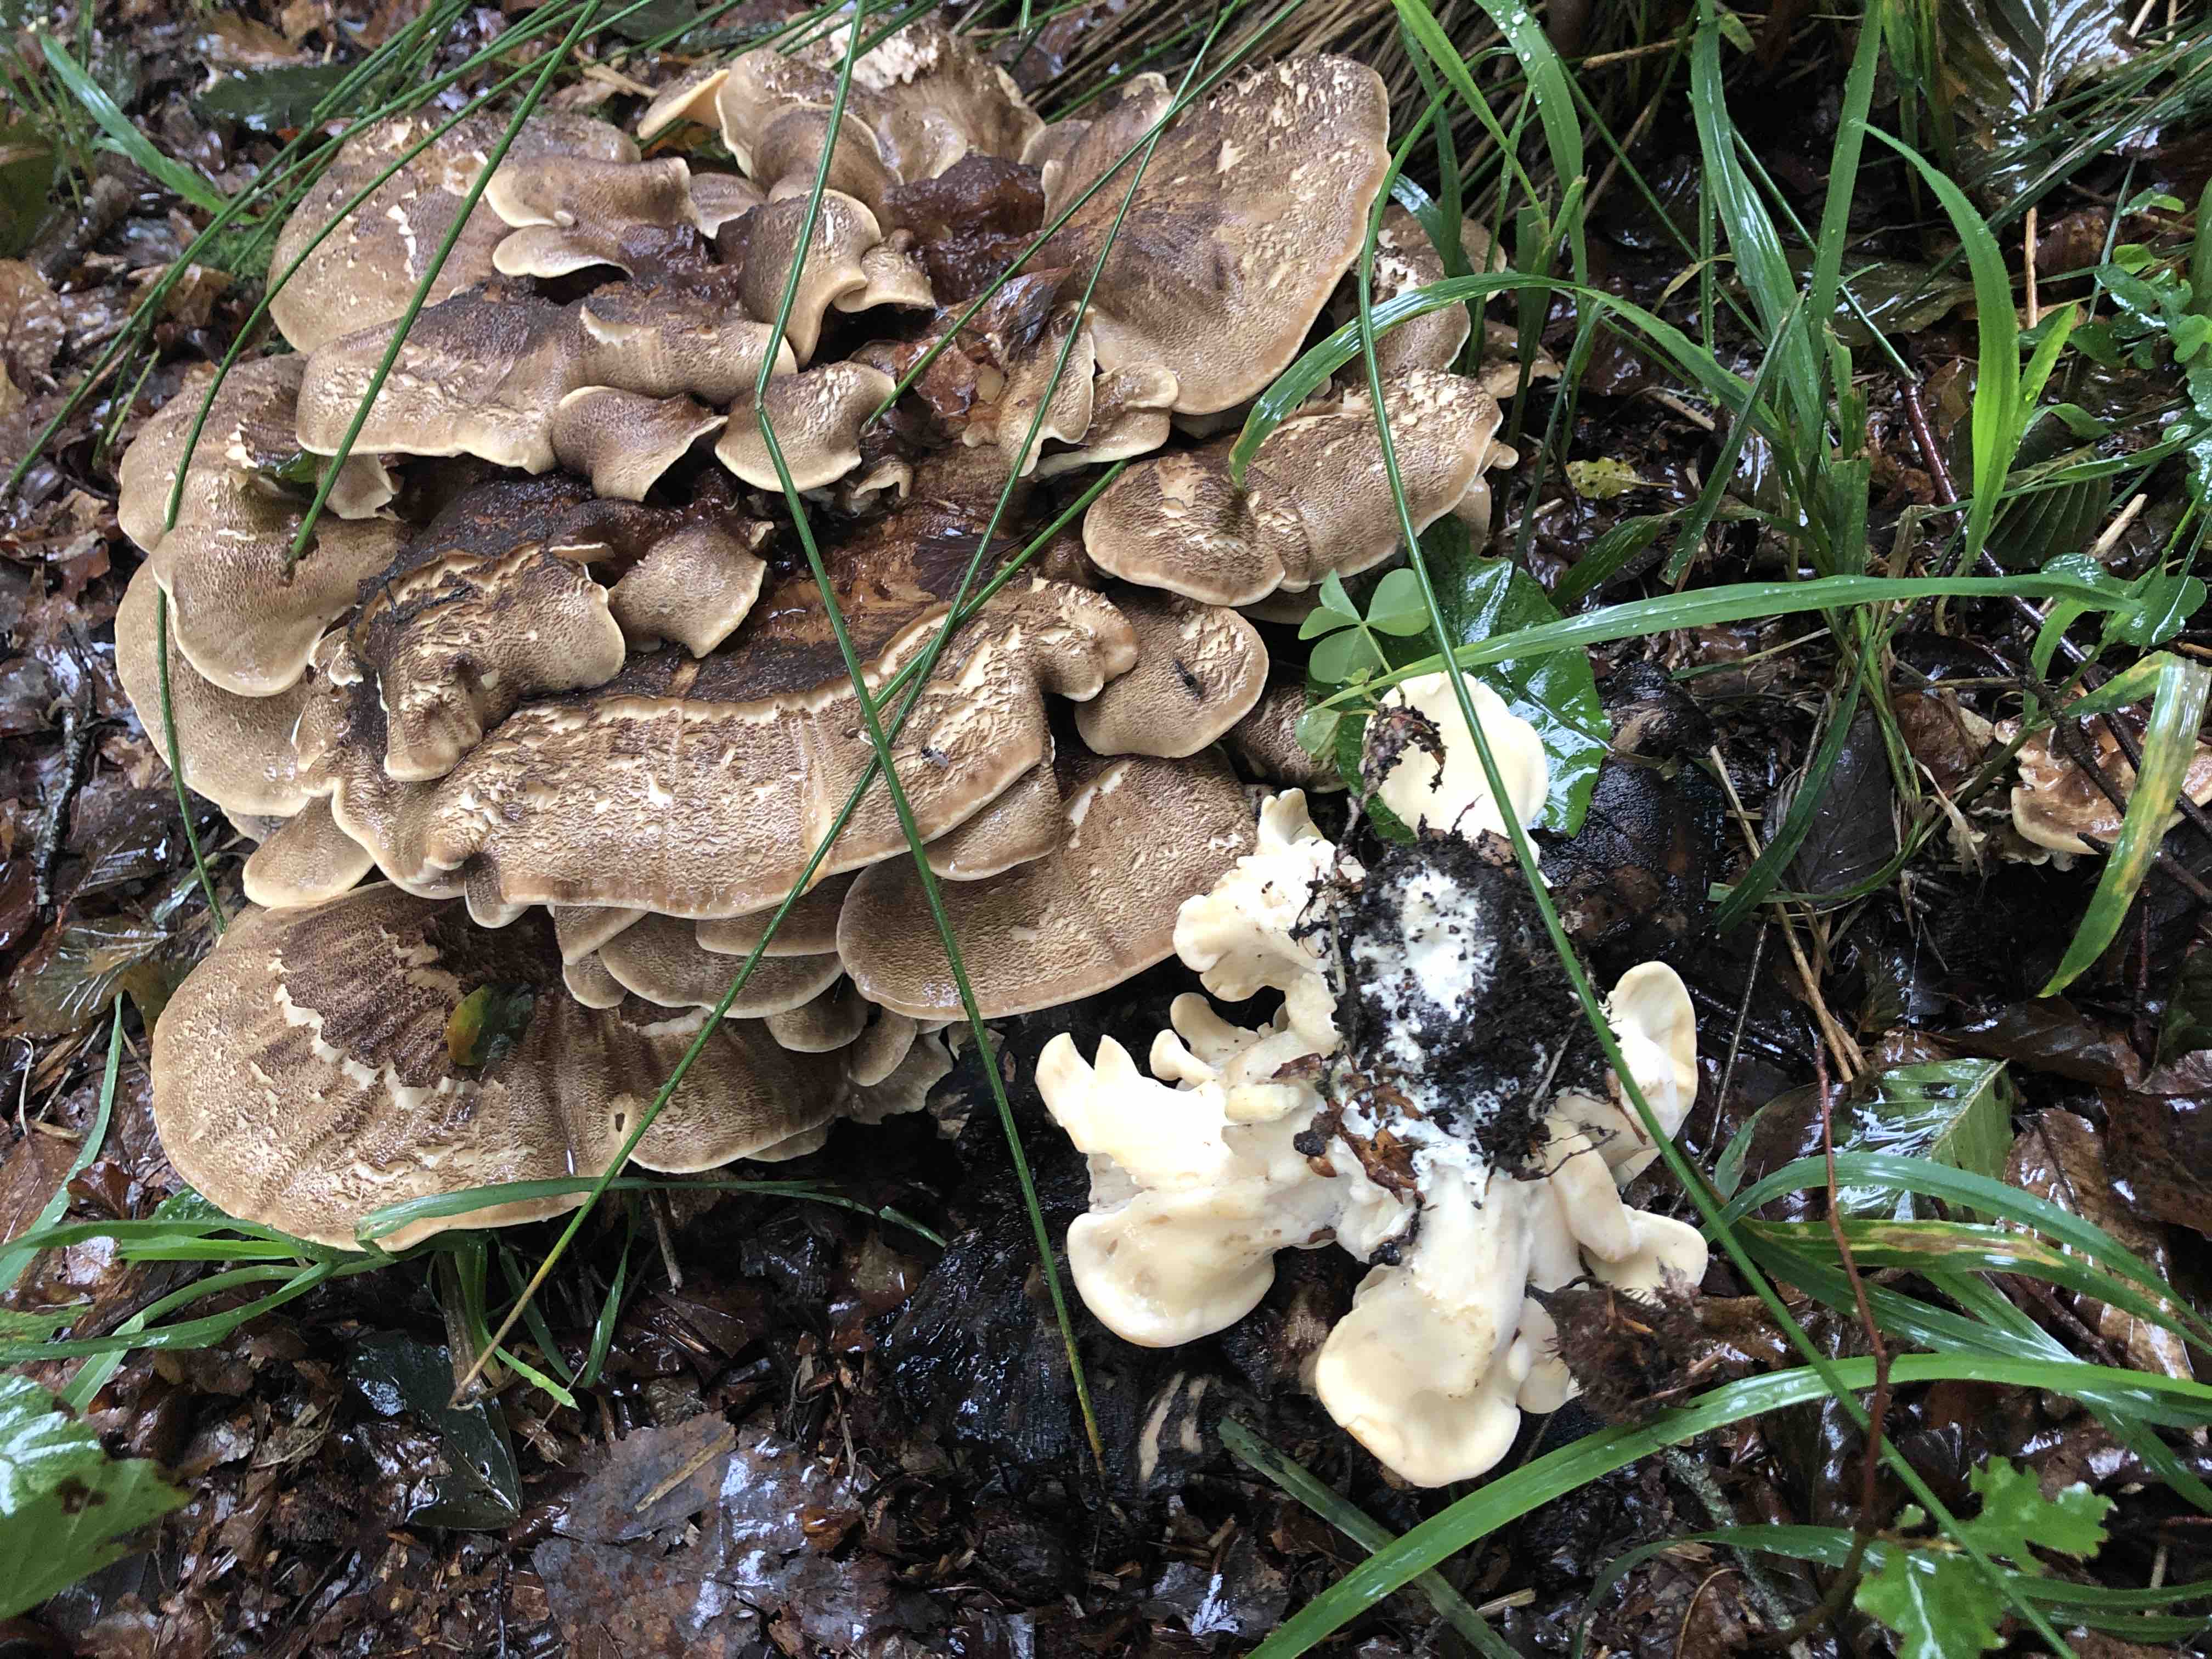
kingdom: Fungi
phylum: Basidiomycota
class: Agaricomycetes
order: Polyporales
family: Meripilaceae
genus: Meripilus
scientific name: Meripilus giganteus
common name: kæmpeporesvamp
